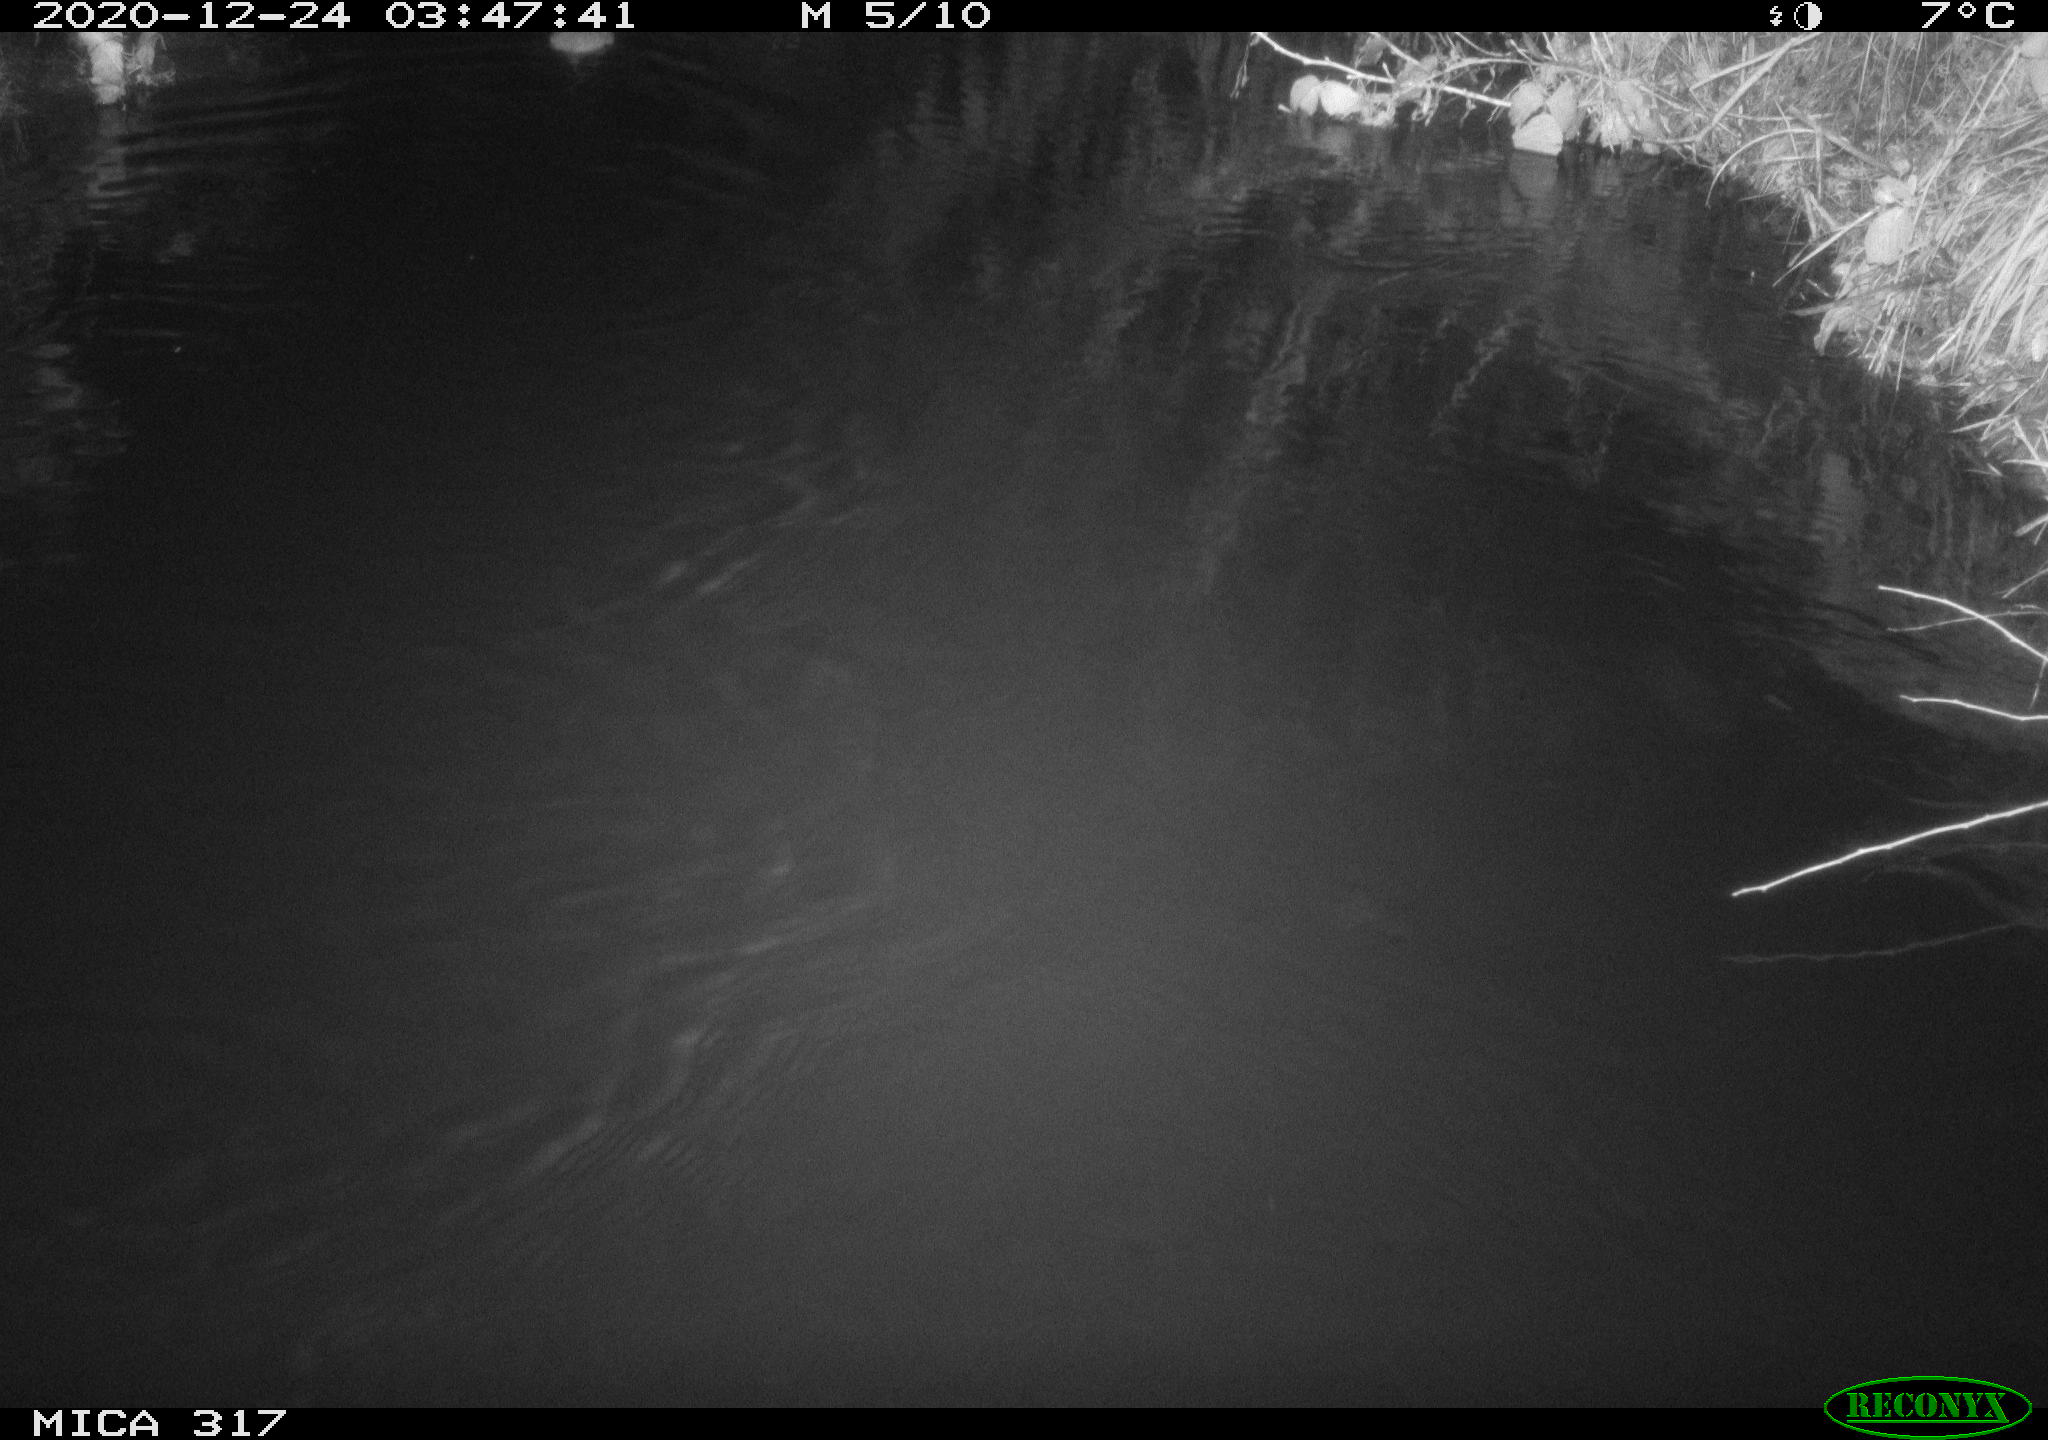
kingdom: Animalia
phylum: Chordata
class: Mammalia
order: Rodentia
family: Muridae
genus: Rattus
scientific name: Rattus norvegicus
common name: Brown rat
